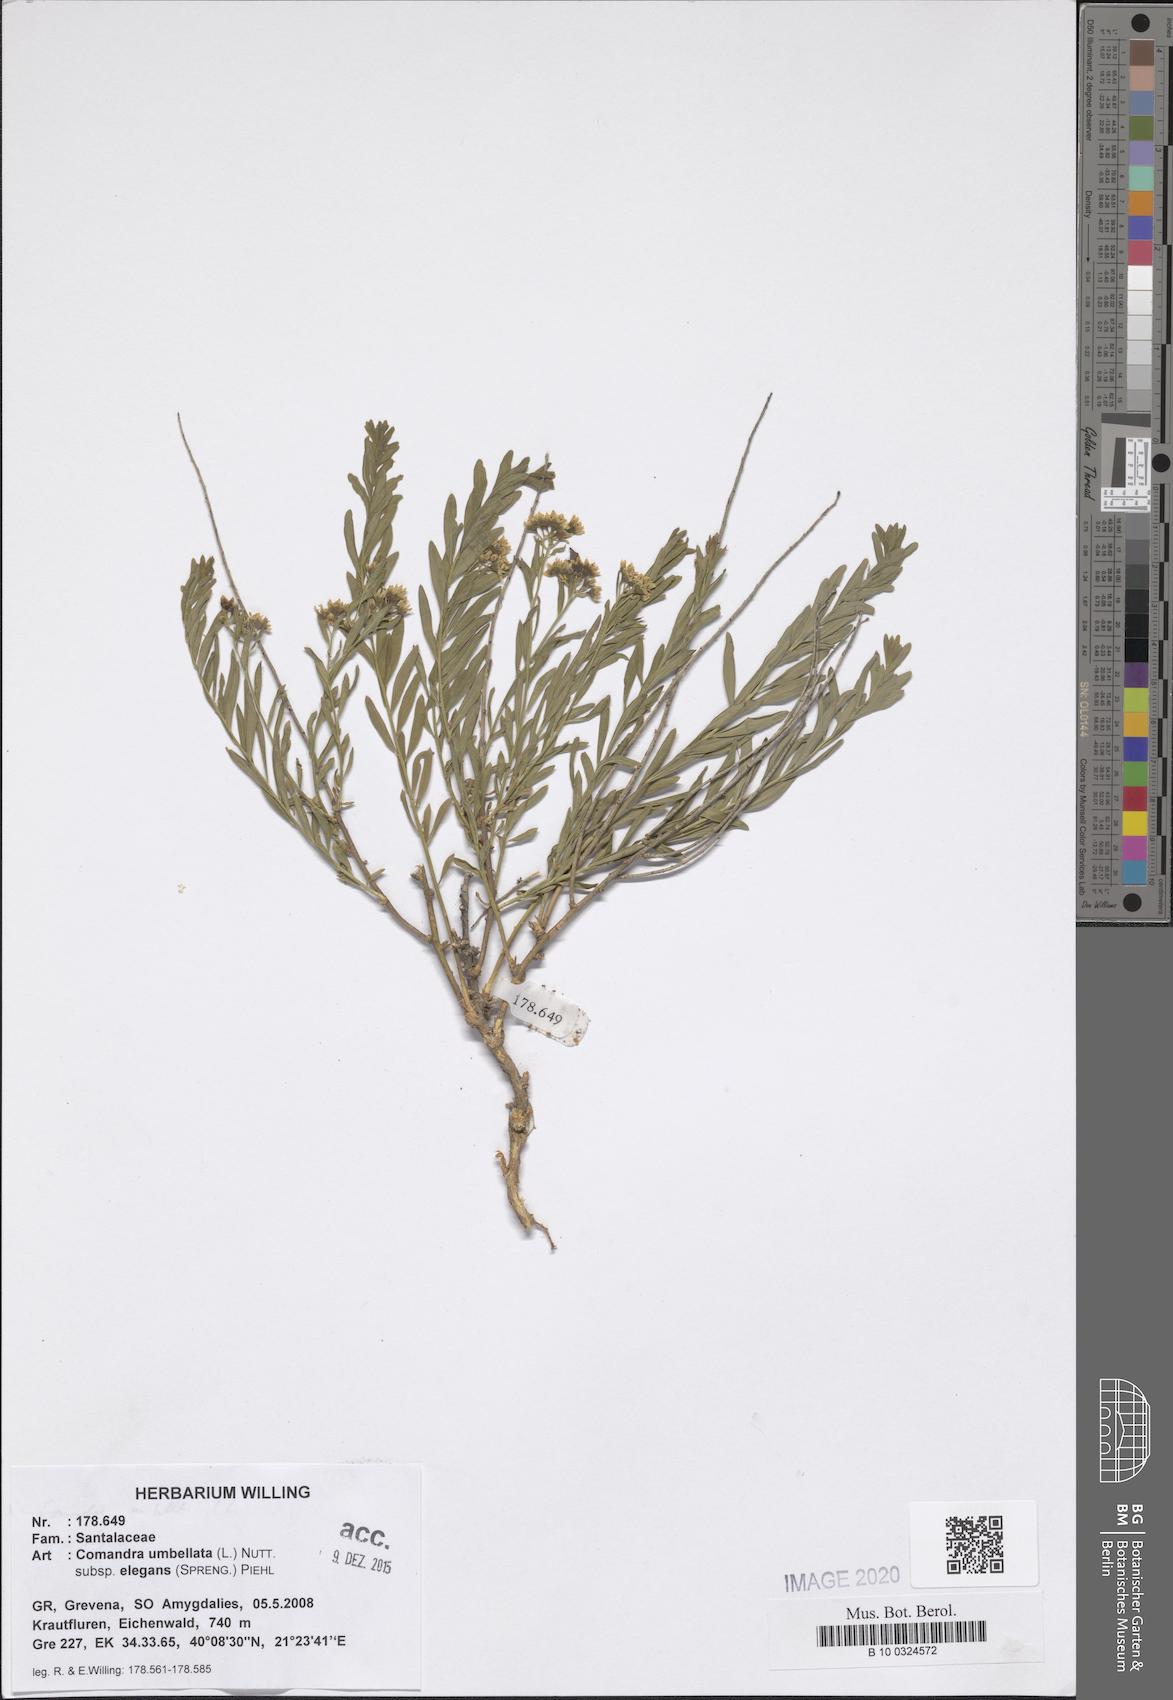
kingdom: Plantae
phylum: Tracheophyta
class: Magnoliopsida
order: Santalales
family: Comandraceae
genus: Comandra
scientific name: Comandra umbellata
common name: Bastard toadflax
